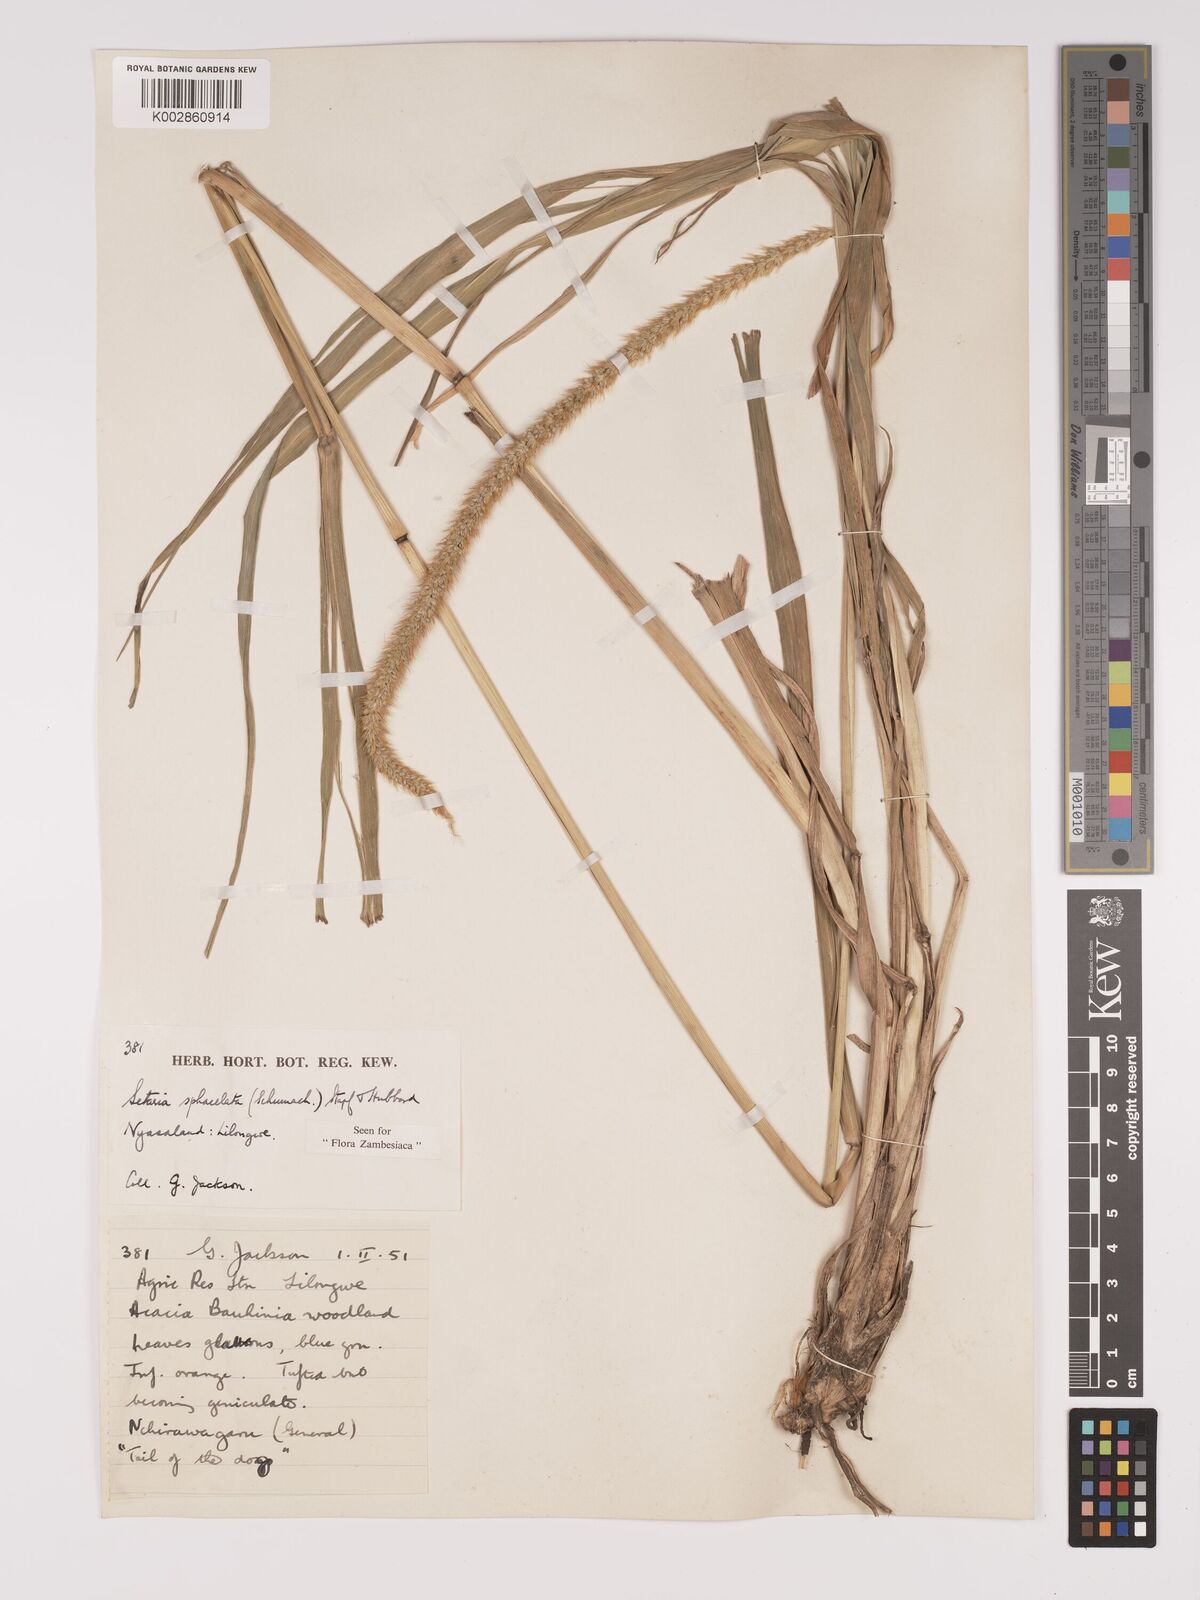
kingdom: Plantae
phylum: Tracheophyta
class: Liliopsida
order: Poales
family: Poaceae
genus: Setaria
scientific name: Setaria sphacelata
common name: African bristlegrass
